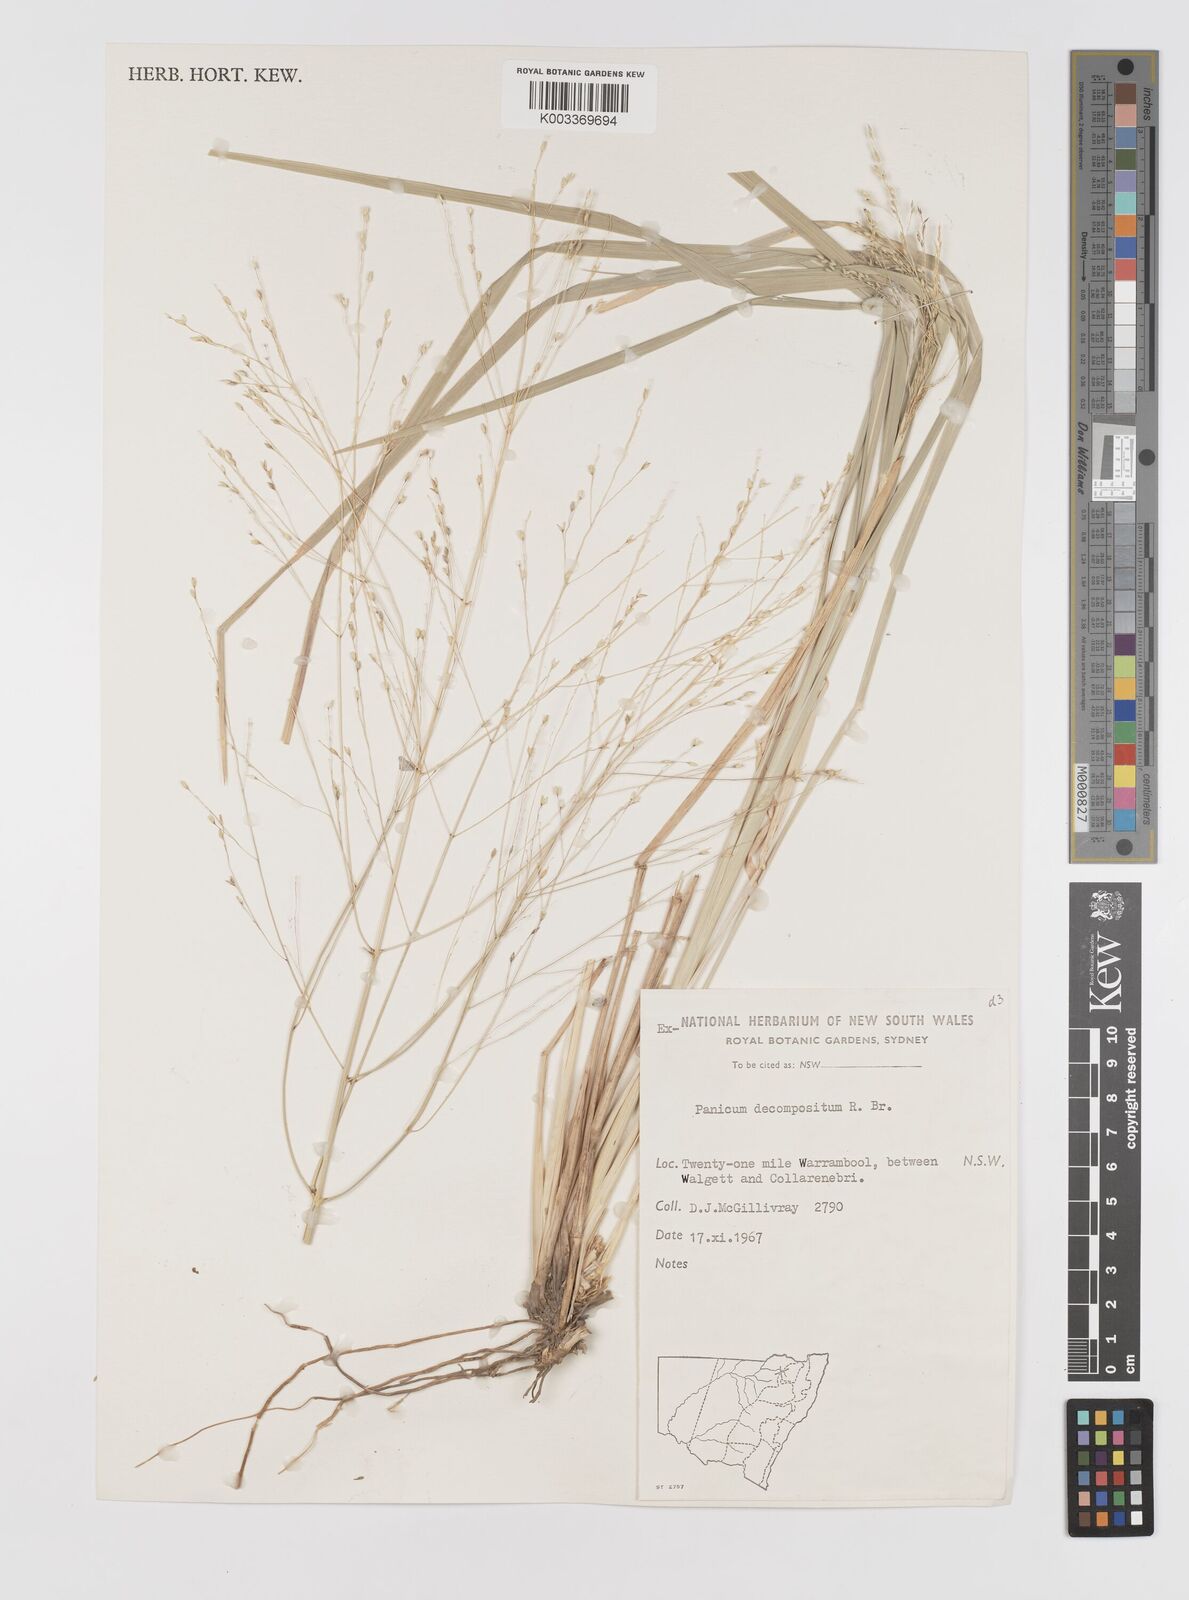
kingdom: Plantae
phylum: Tracheophyta
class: Liliopsida
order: Poales
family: Poaceae
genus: Panicum
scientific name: Panicum decompositum
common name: Australian millet
